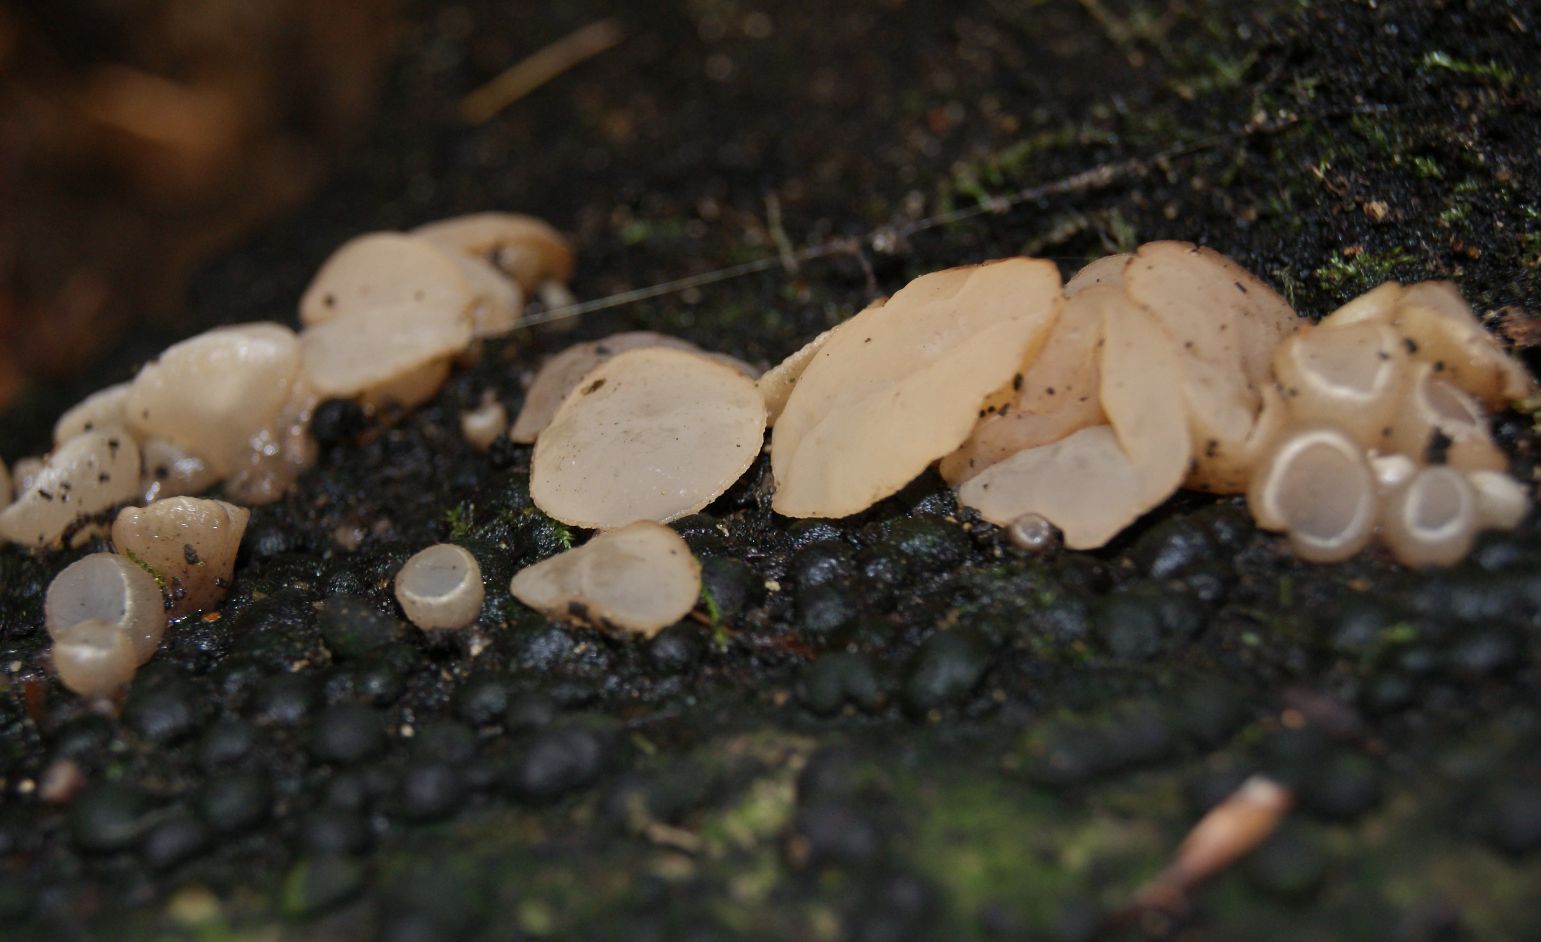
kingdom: Fungi
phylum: Ascomycota
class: Leotiomycetes
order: Helotiales
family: Gelatinodiscaceae
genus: Neobulgaria
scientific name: Neobulgaria pura
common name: bleg bævreskive
